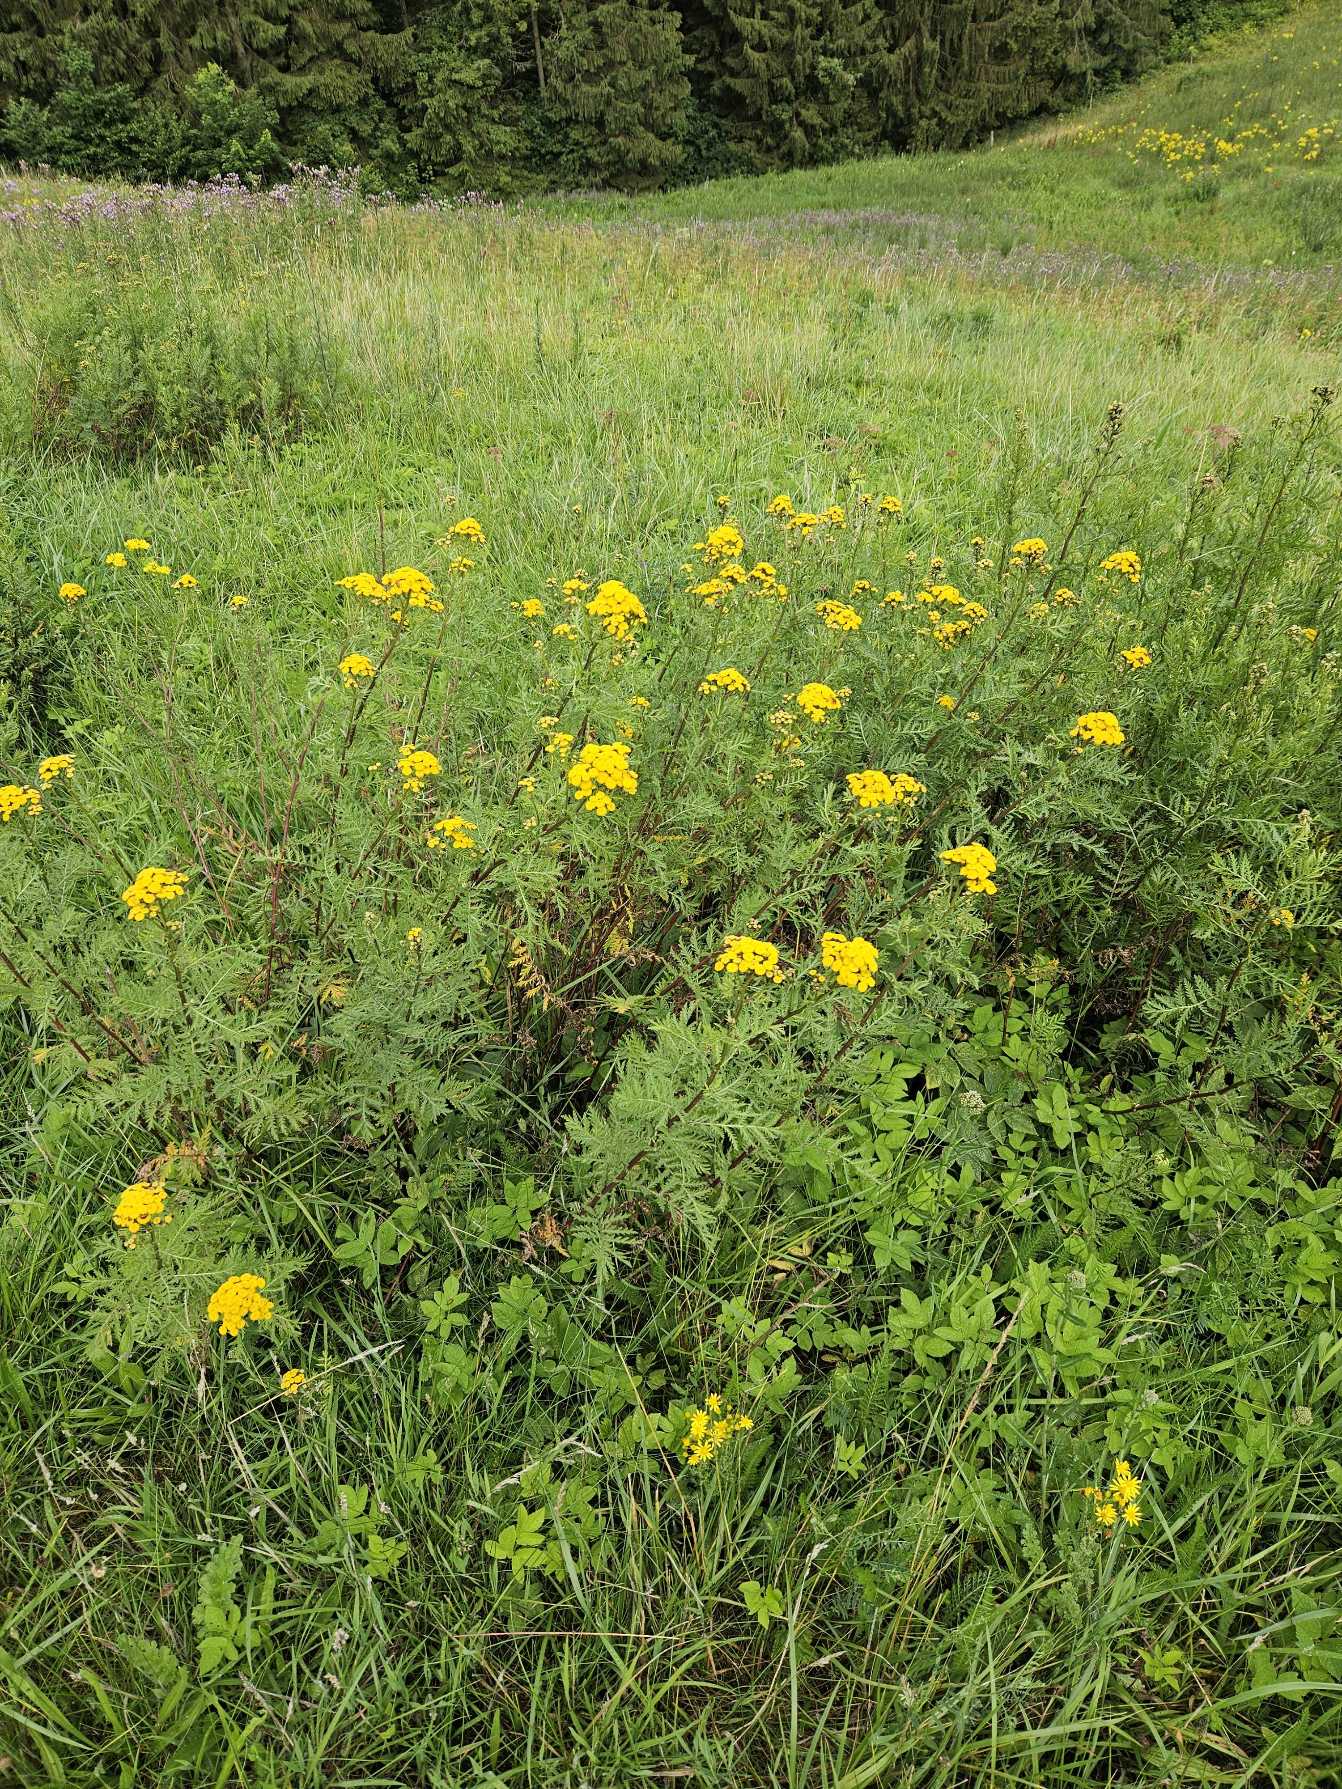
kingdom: Plantae
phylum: Tracheophyta
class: Magnoliopsida
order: Asterales
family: Asteraceae
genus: Tanacetum
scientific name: Tanacetum vulgare
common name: Rejnfan
